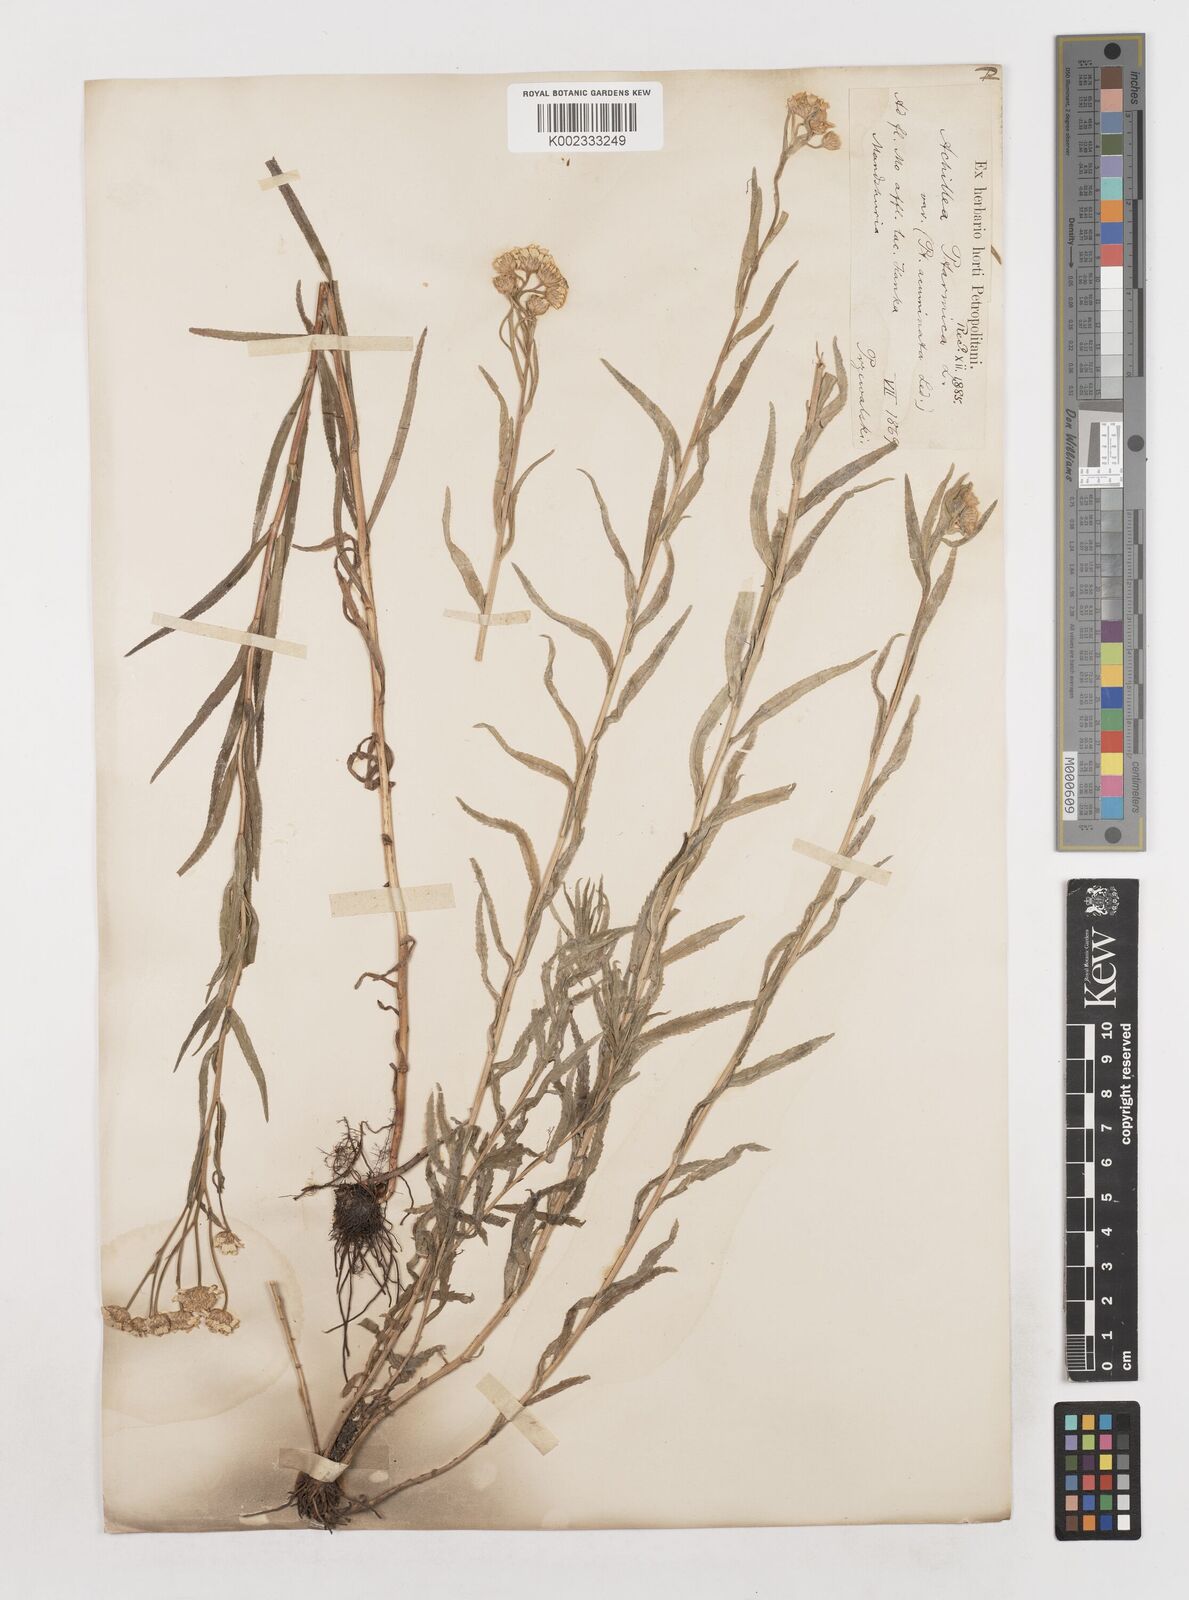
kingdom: Plantae
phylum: Tracheophyta
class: Magnoliopsida
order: Asterales
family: Asteraceae
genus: Achillea
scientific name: Achillea
